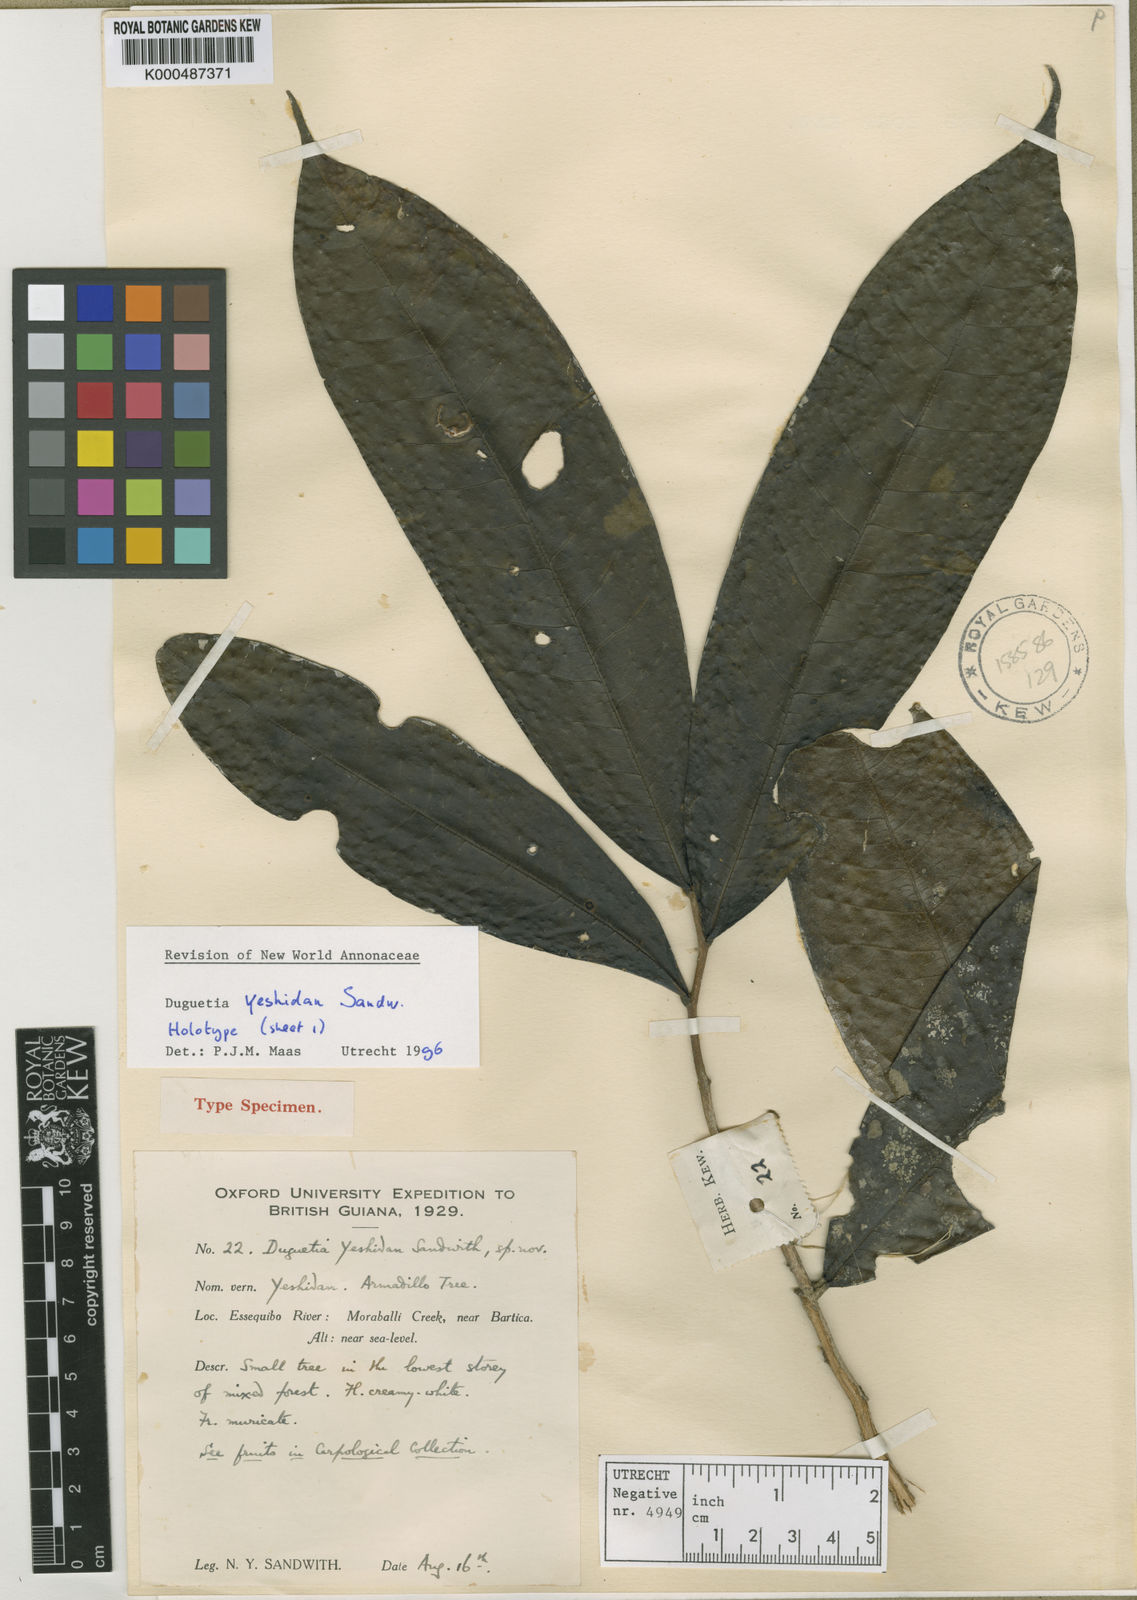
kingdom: Plantae
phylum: Tracheophyta
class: Magnoliopsida
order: Magnoliales
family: Annonaceae
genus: Duguetia
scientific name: Duguetia uniflora
